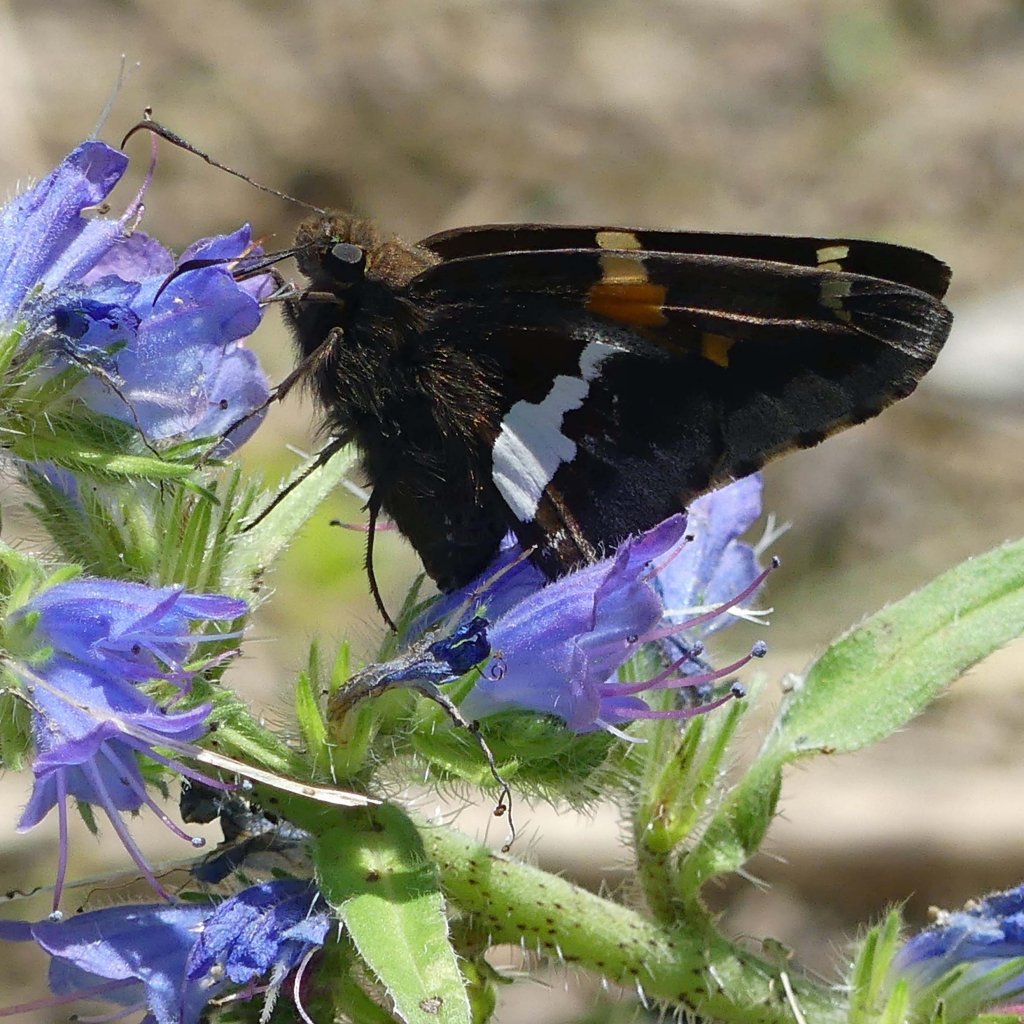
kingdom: Animalia
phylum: Arthropoda
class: Insecta
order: Lepidoptera
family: Hesperiidae
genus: Epargyreus
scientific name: Epargyreus clarus
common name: Silver-spotted Skipper
